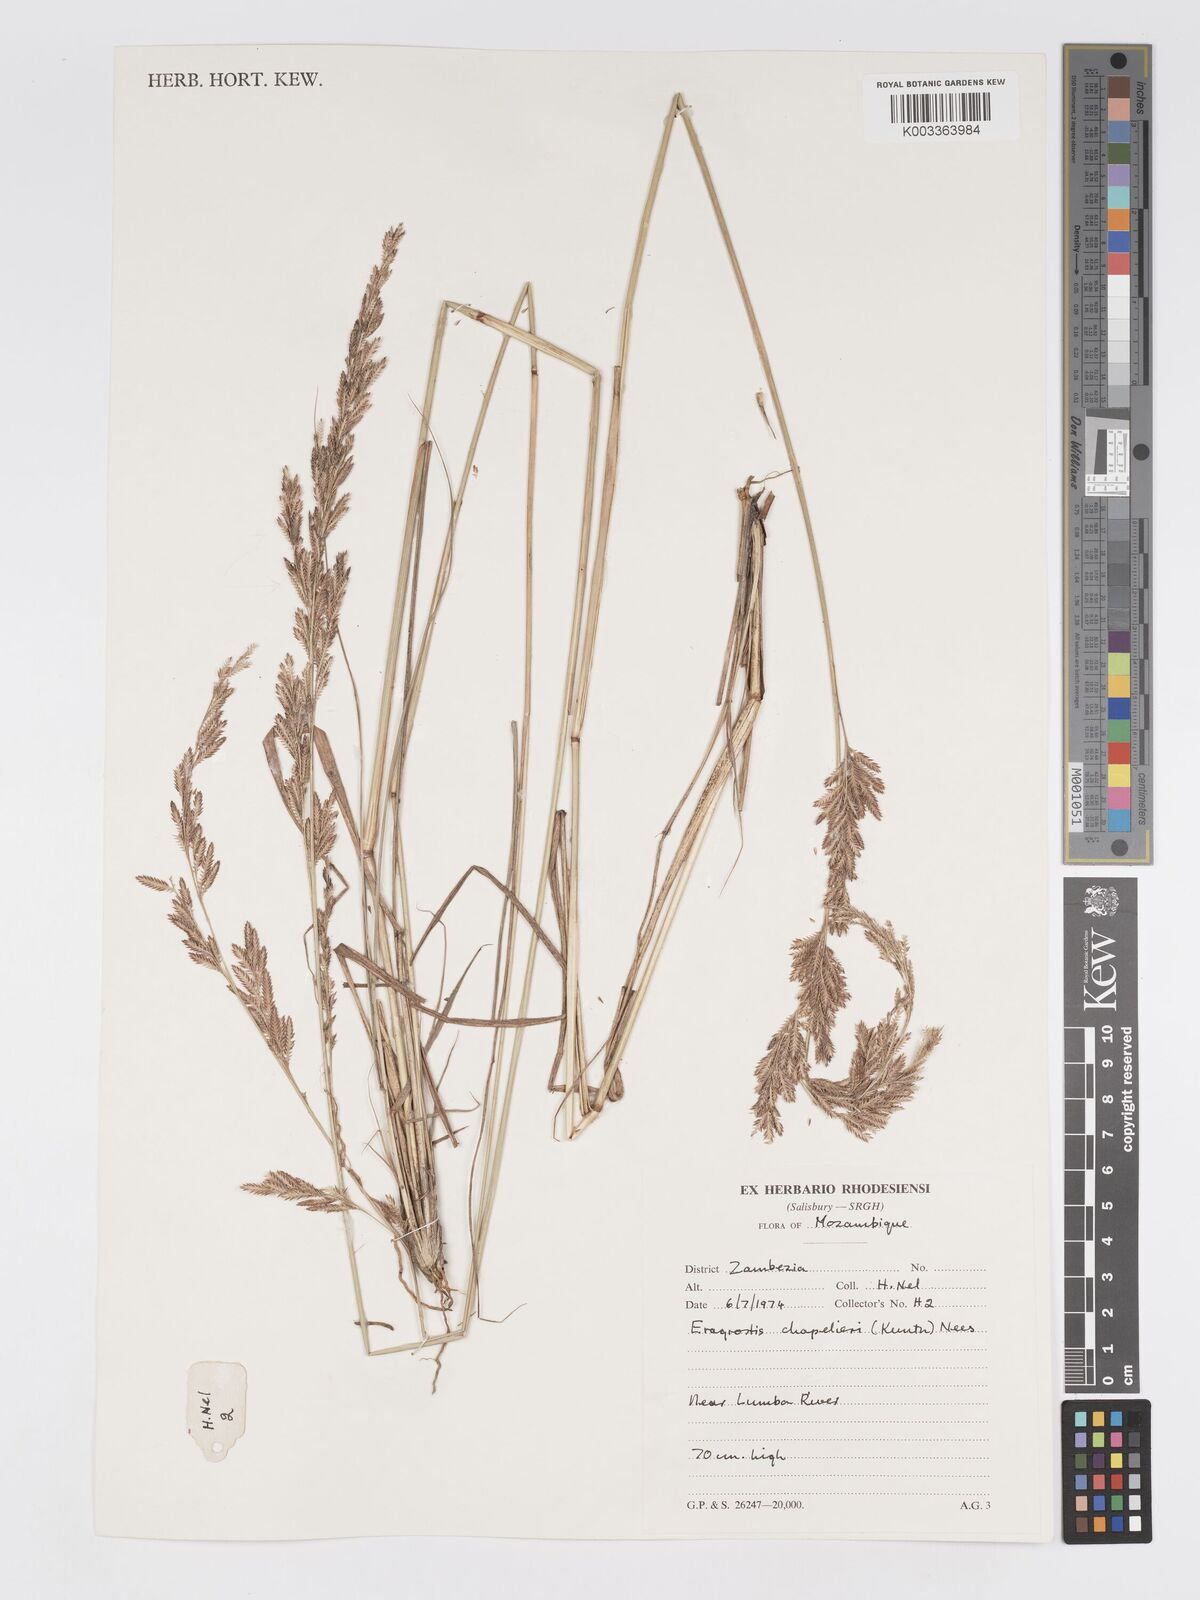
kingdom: Plantae
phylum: Tracheophyta
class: Liliopsida
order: Poales
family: Poaceae
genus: Eragrostis
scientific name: Eragrostis chapelieri
